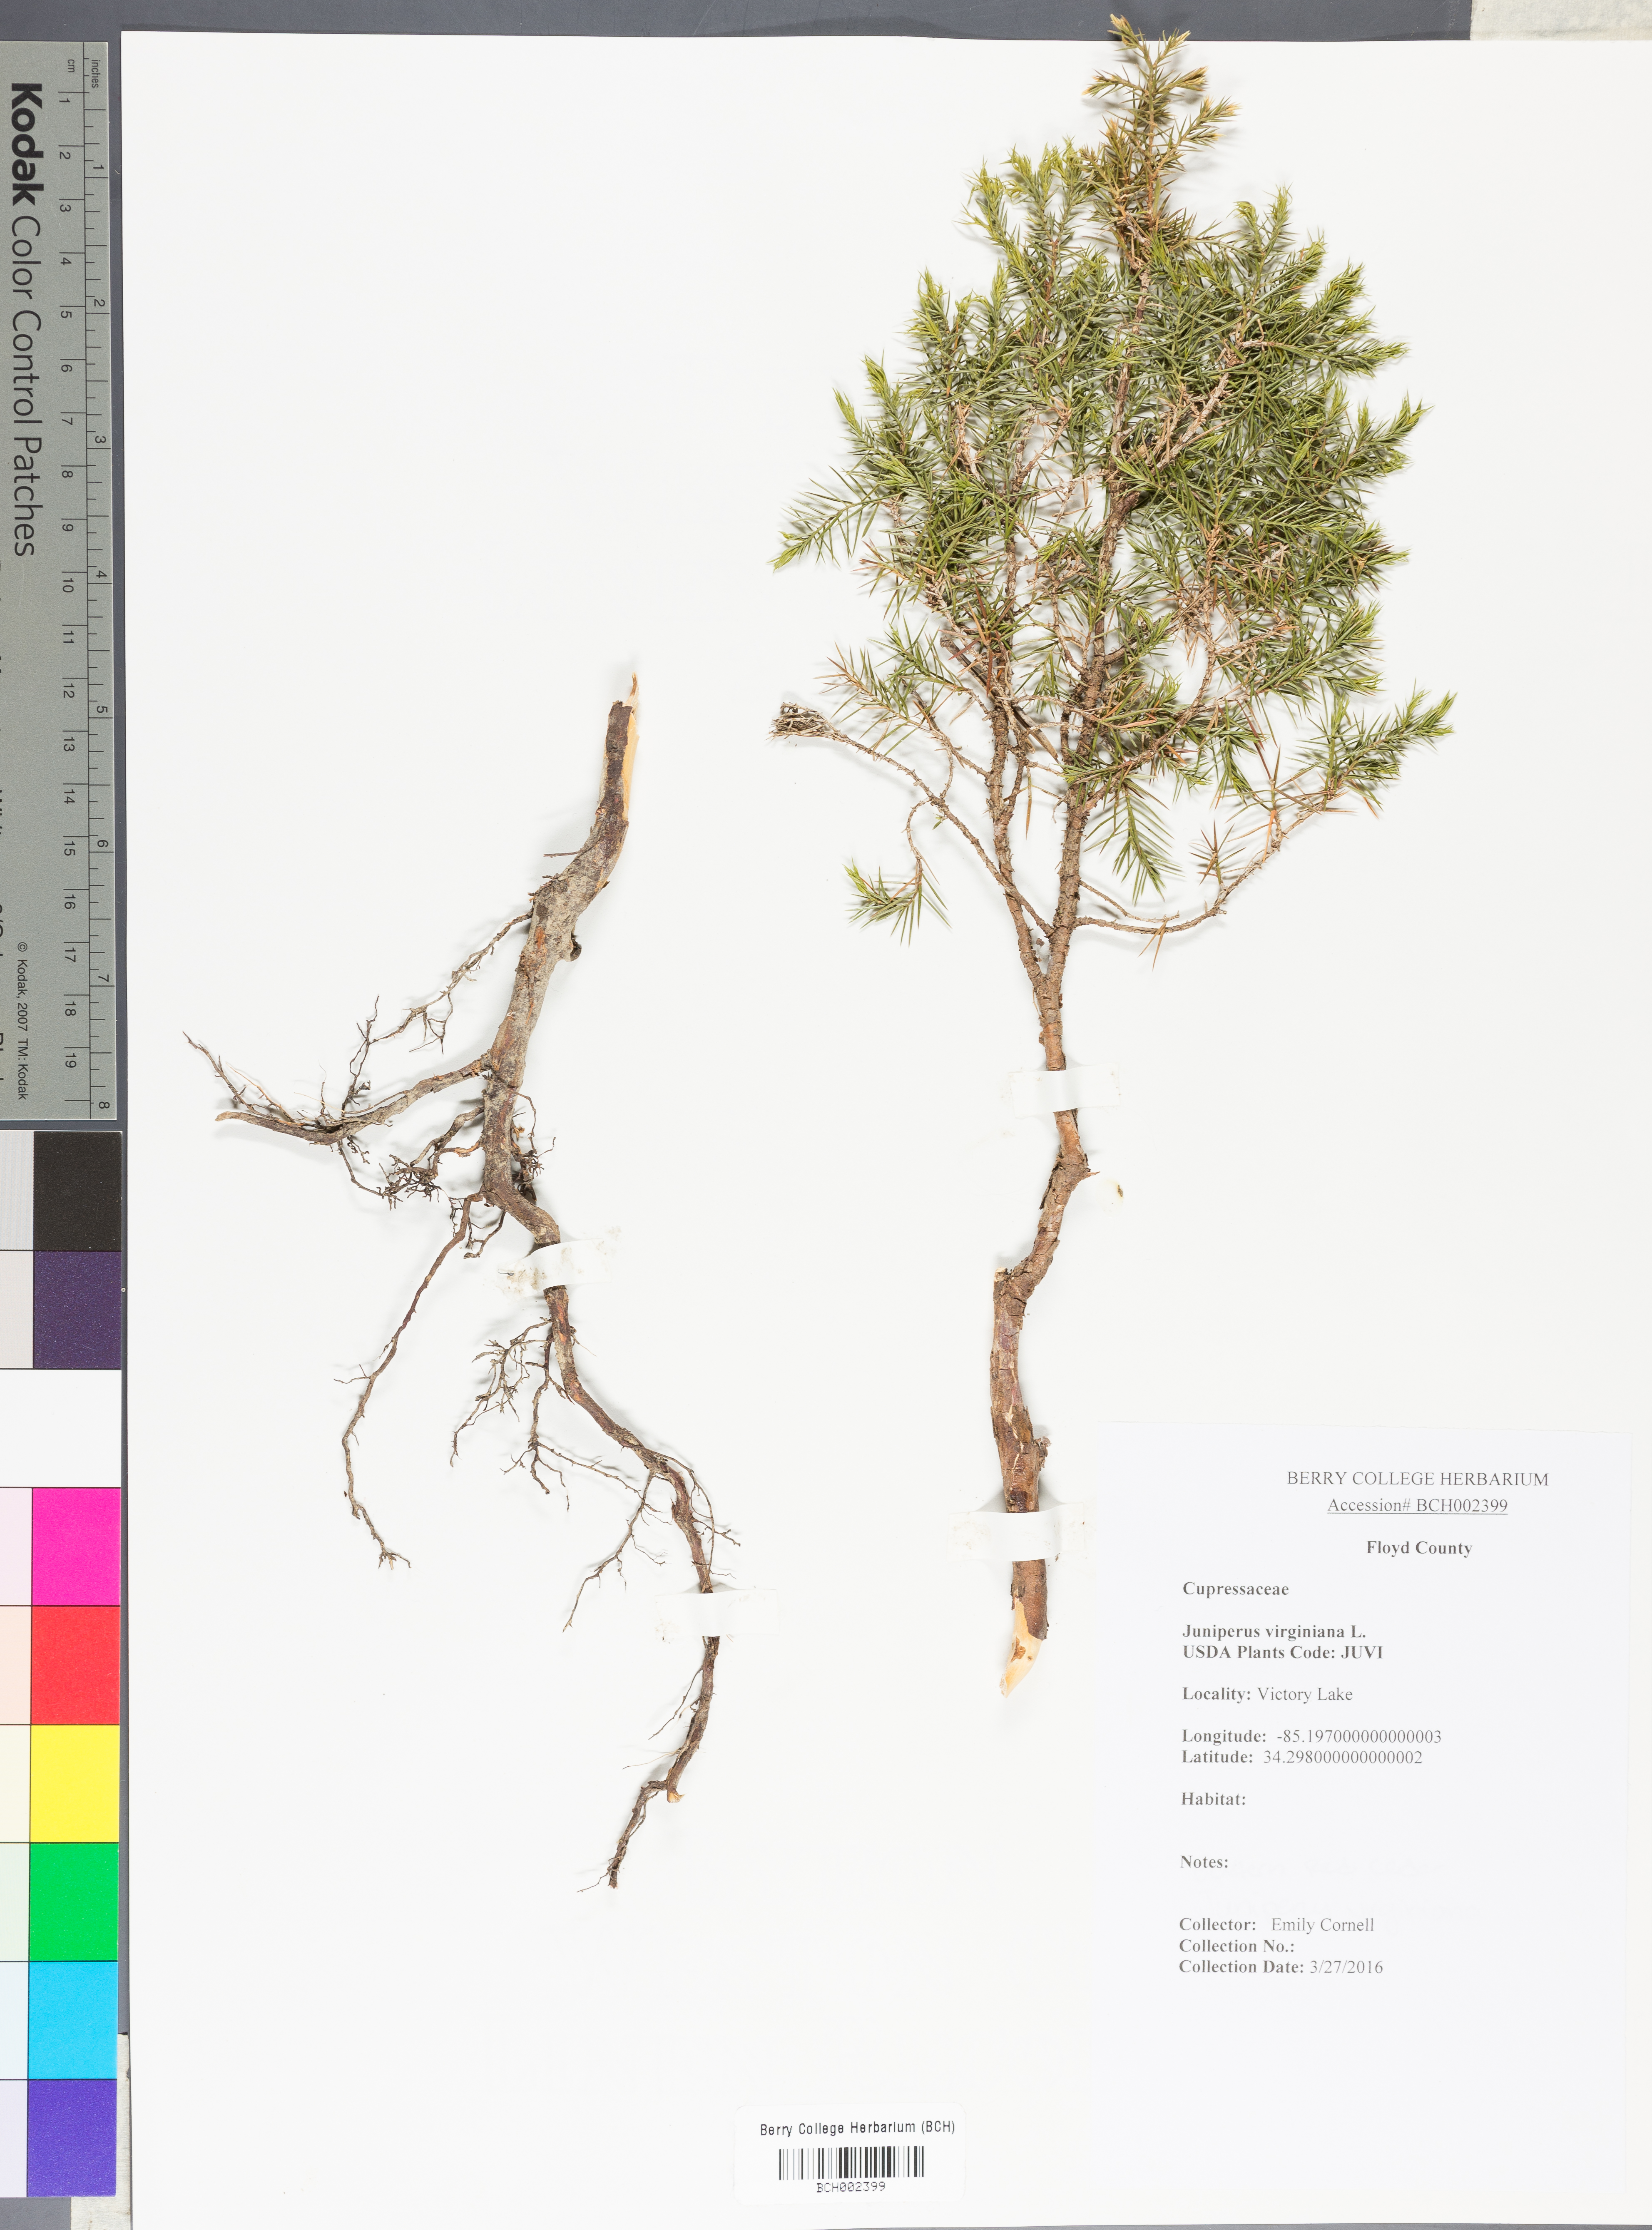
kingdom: Plantae
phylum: Tracheophyta
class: Pinopsida
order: Pinales
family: Cupressaceae
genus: Juniperus
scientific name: Juniperus virginiana
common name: Red juniper
